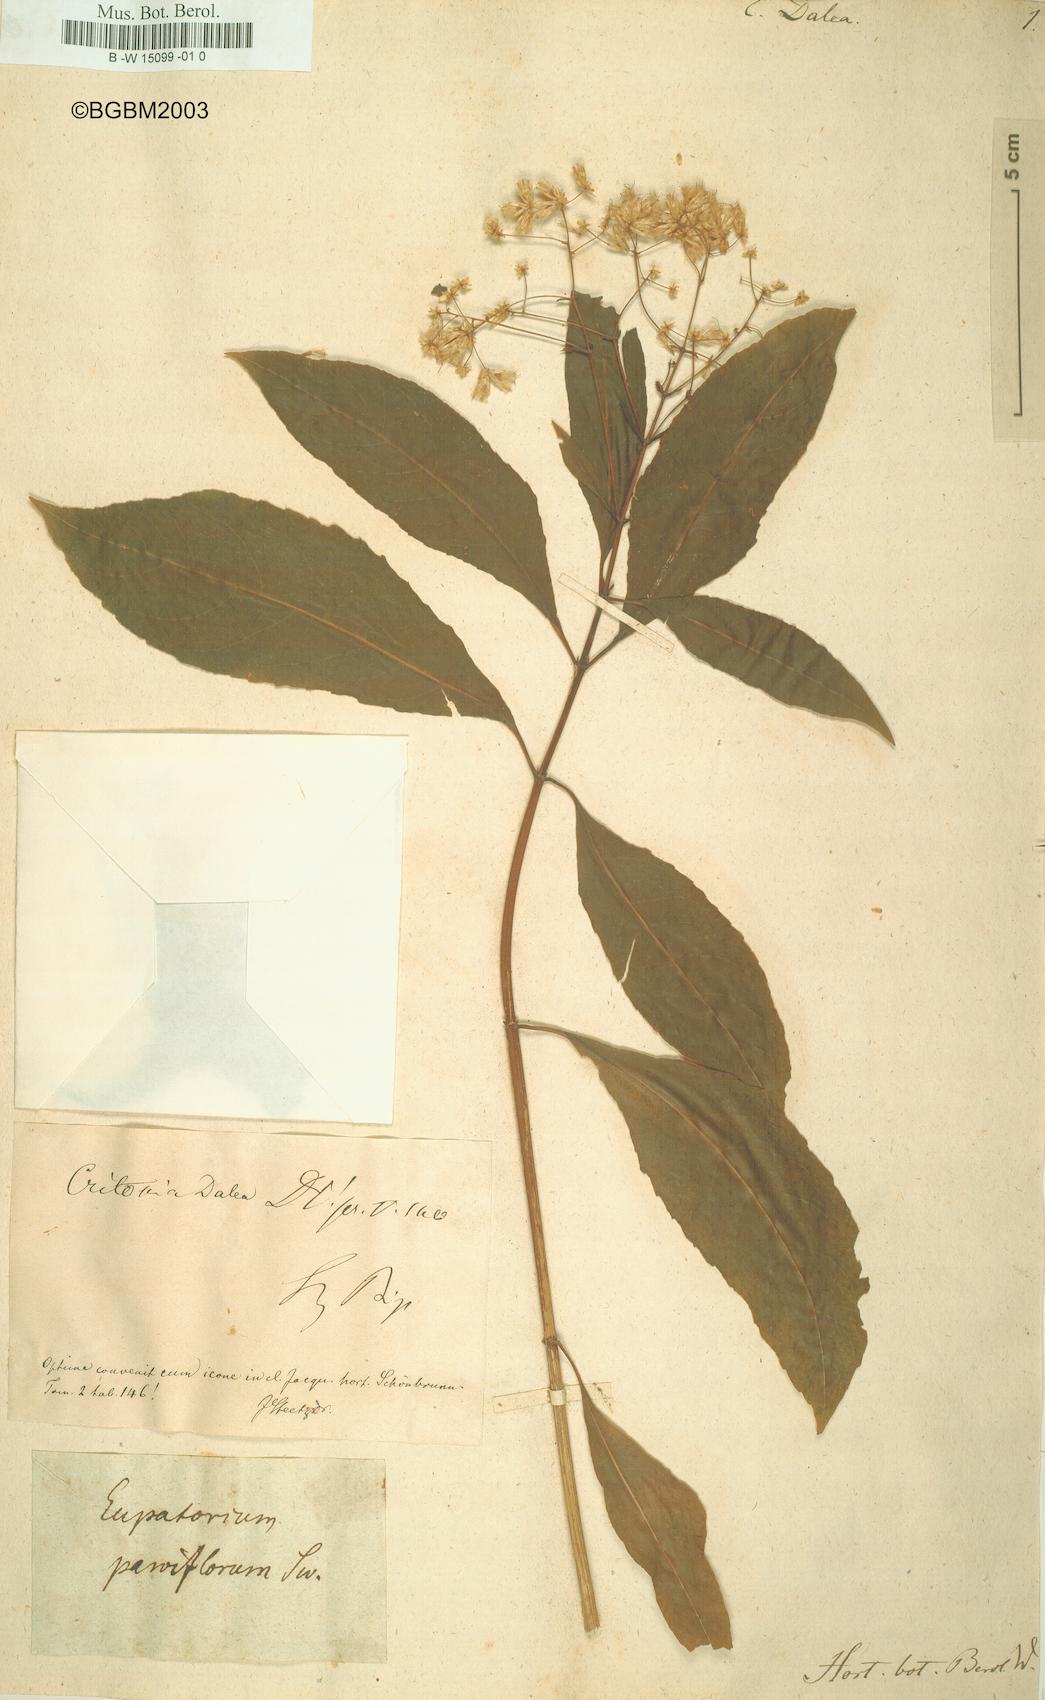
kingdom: Plantae
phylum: Tracheophyta
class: Magnoliopsida
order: Asterales
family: Asteraceae
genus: Critonia
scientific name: Critonia
